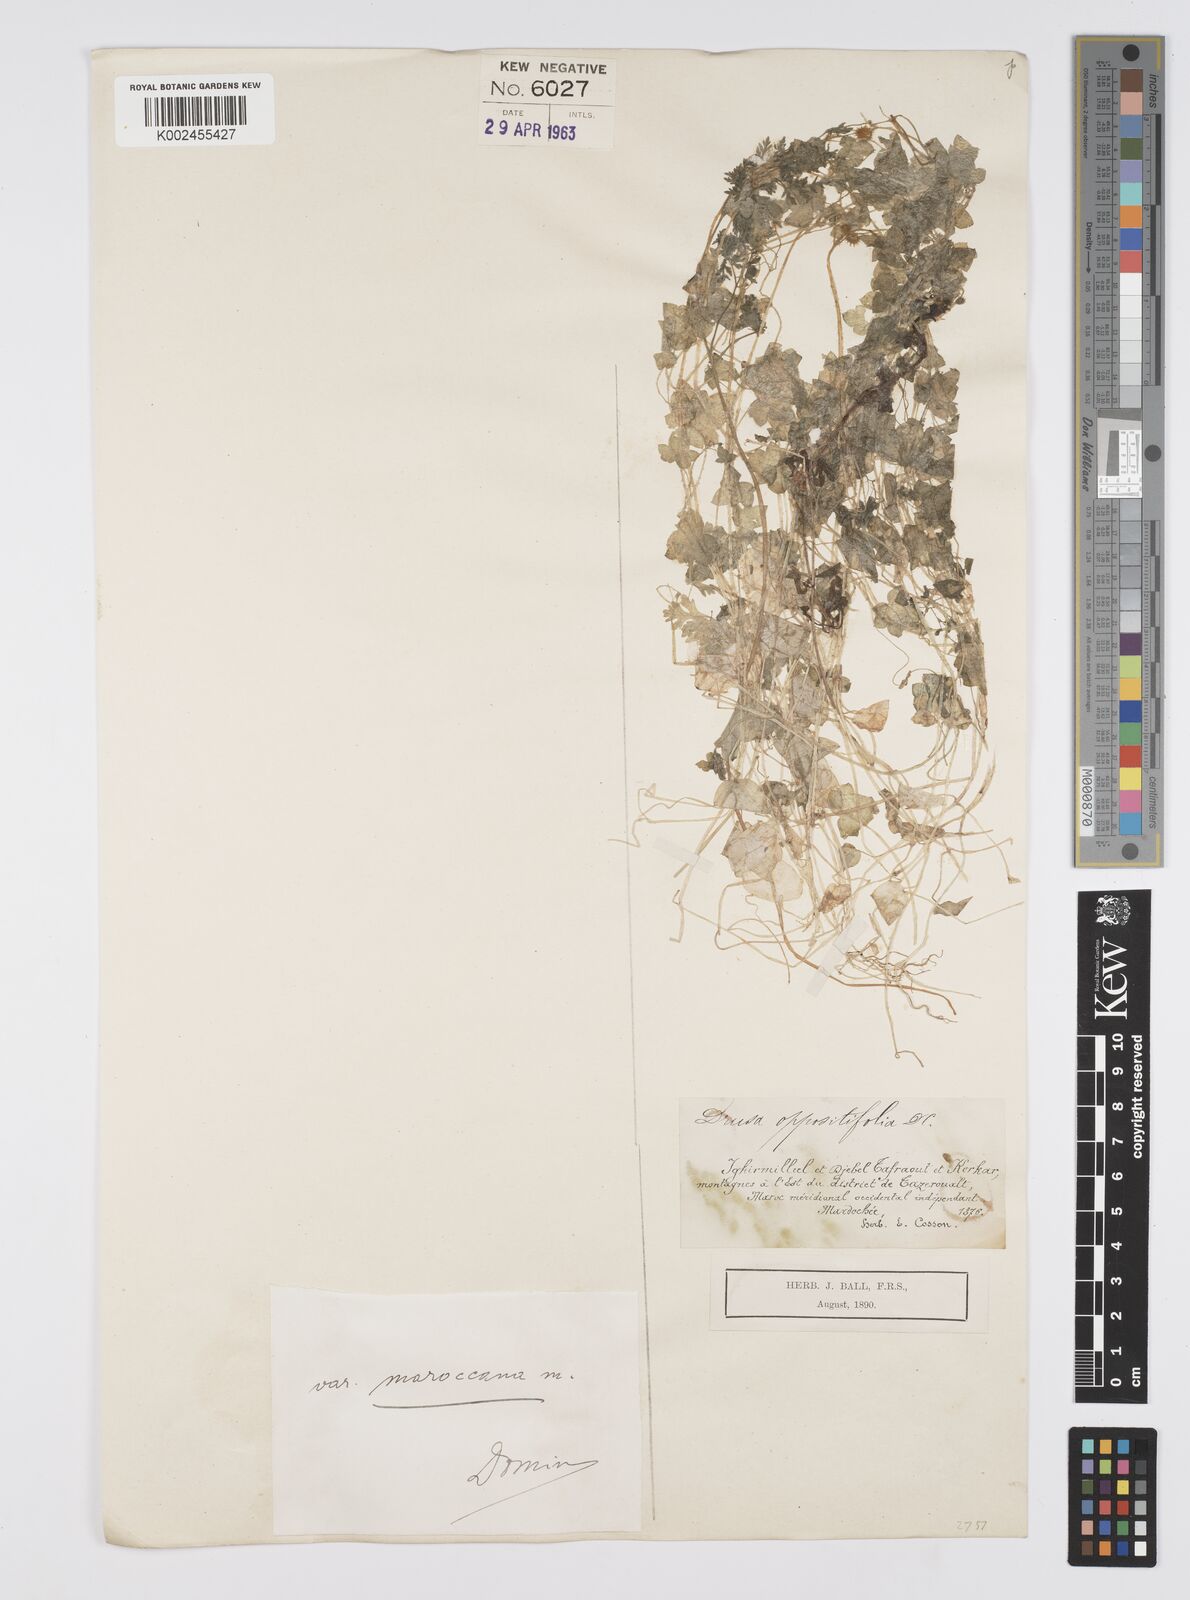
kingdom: Plantae
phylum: Tracheophyta
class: Magnoliopsida
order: Apiales
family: Apiaceae
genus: Drusa
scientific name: Drusa glandulosa
